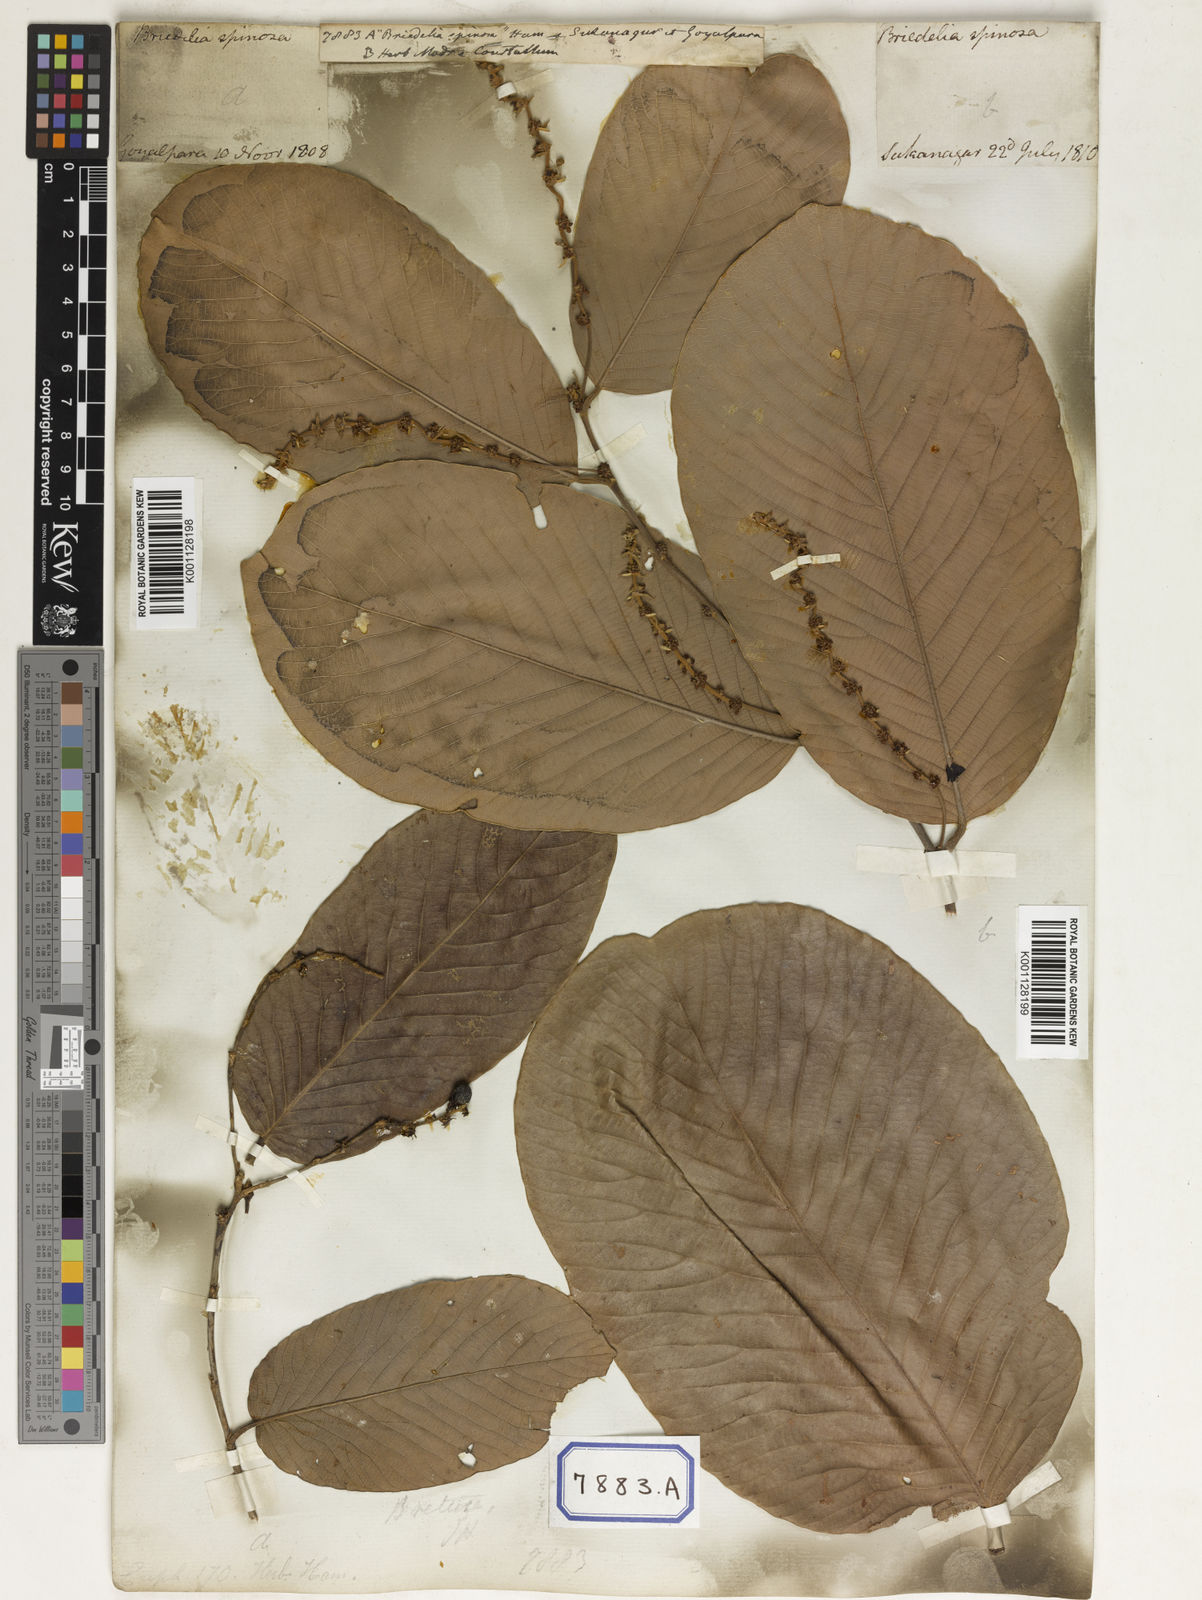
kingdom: Plantae
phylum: Tracheophyta
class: Magnoliopsida
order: Malpighiales
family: Euphorbiaceae
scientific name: Euphorbiaceae
